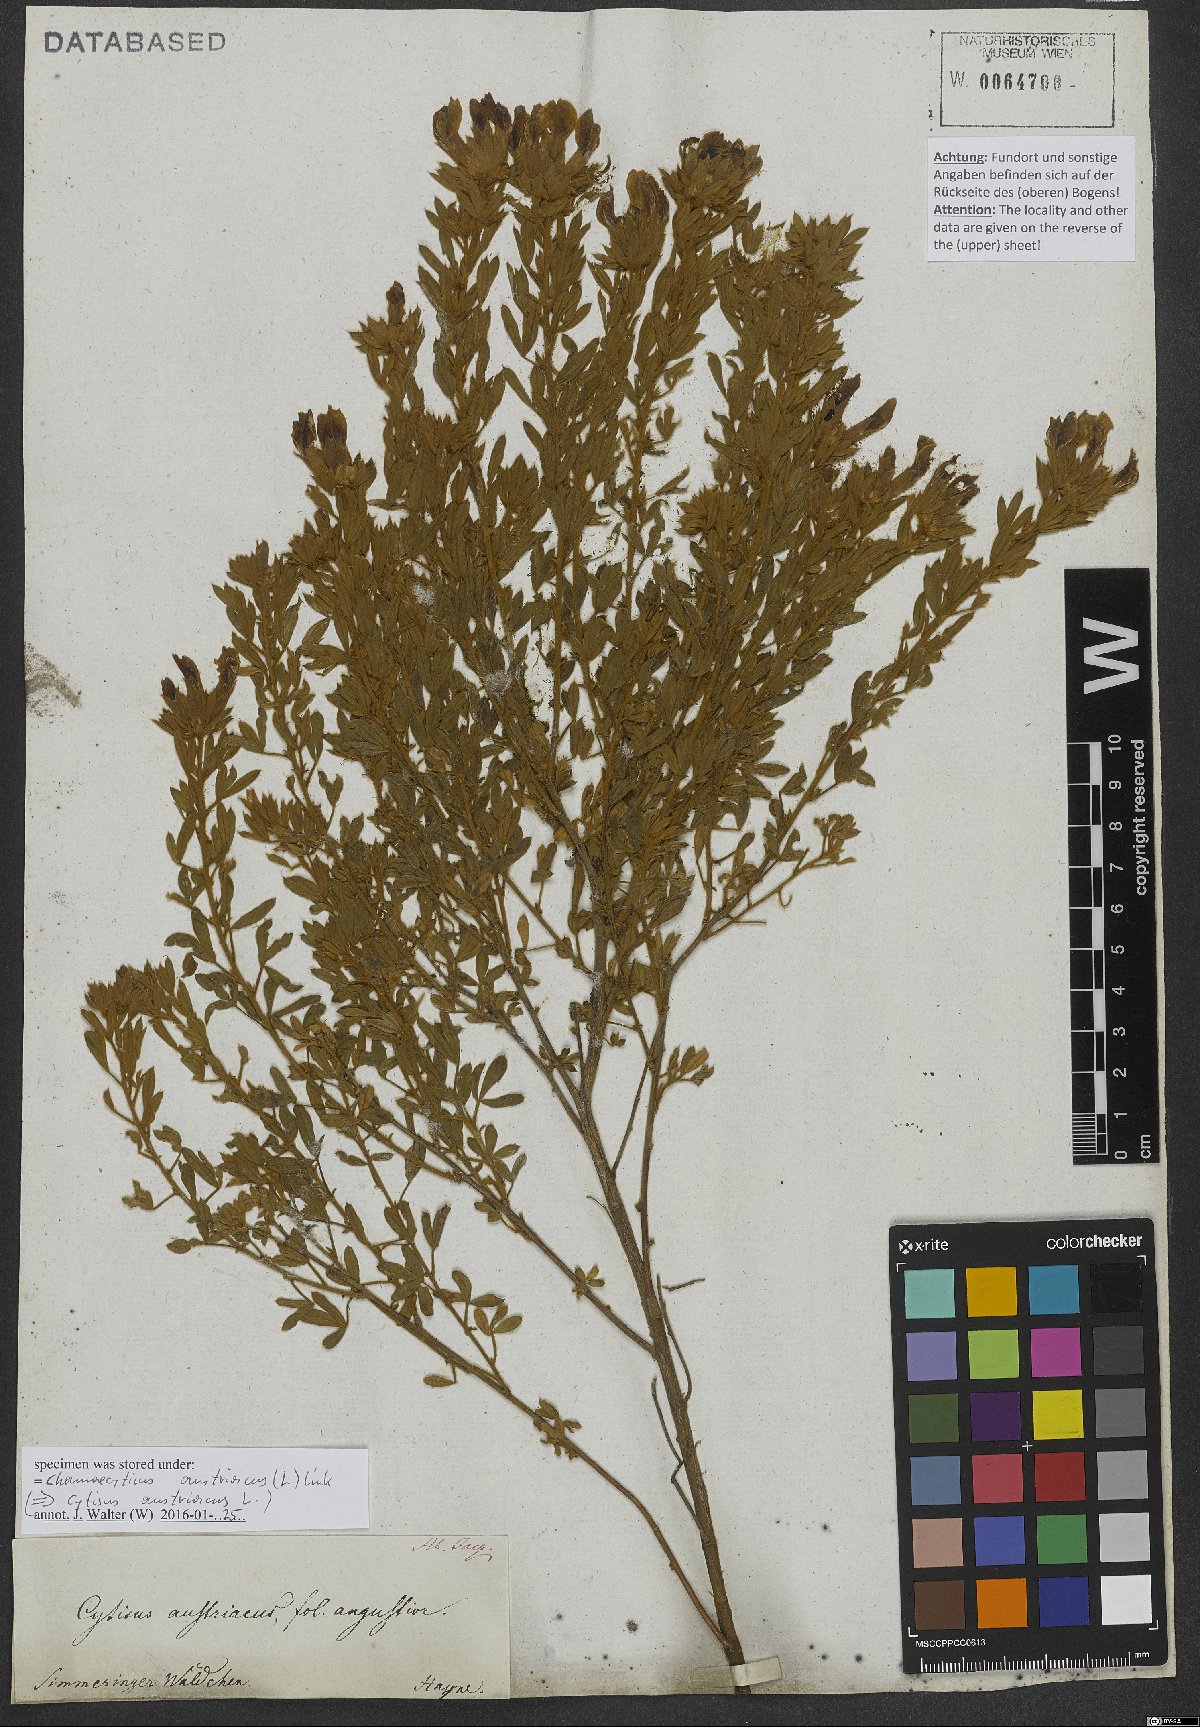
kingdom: Plantae
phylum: Tracheophyta
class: Magnoliopsida
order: Fabales
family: Fabaceae
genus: Chamaecytisus
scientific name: Chamaecytisus austriacus
